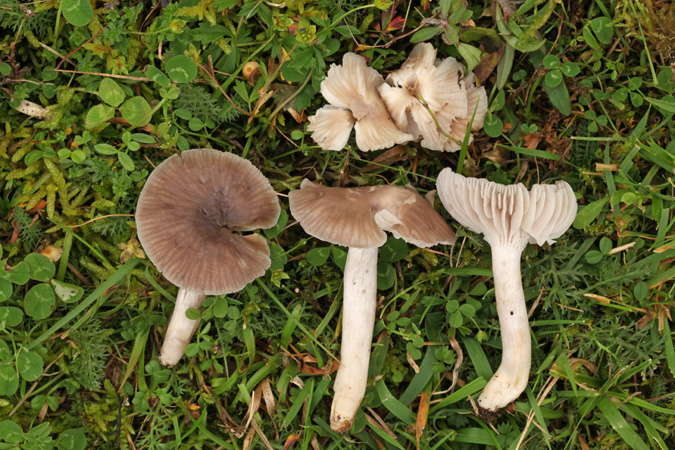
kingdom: Fungi
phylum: Basidiomycota
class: Agaricomycetes
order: Agaricales
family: Hygrophoraceae
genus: Cuphophyllus
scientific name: Cuphophyllus flavipes
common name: gulfodet vokshat
